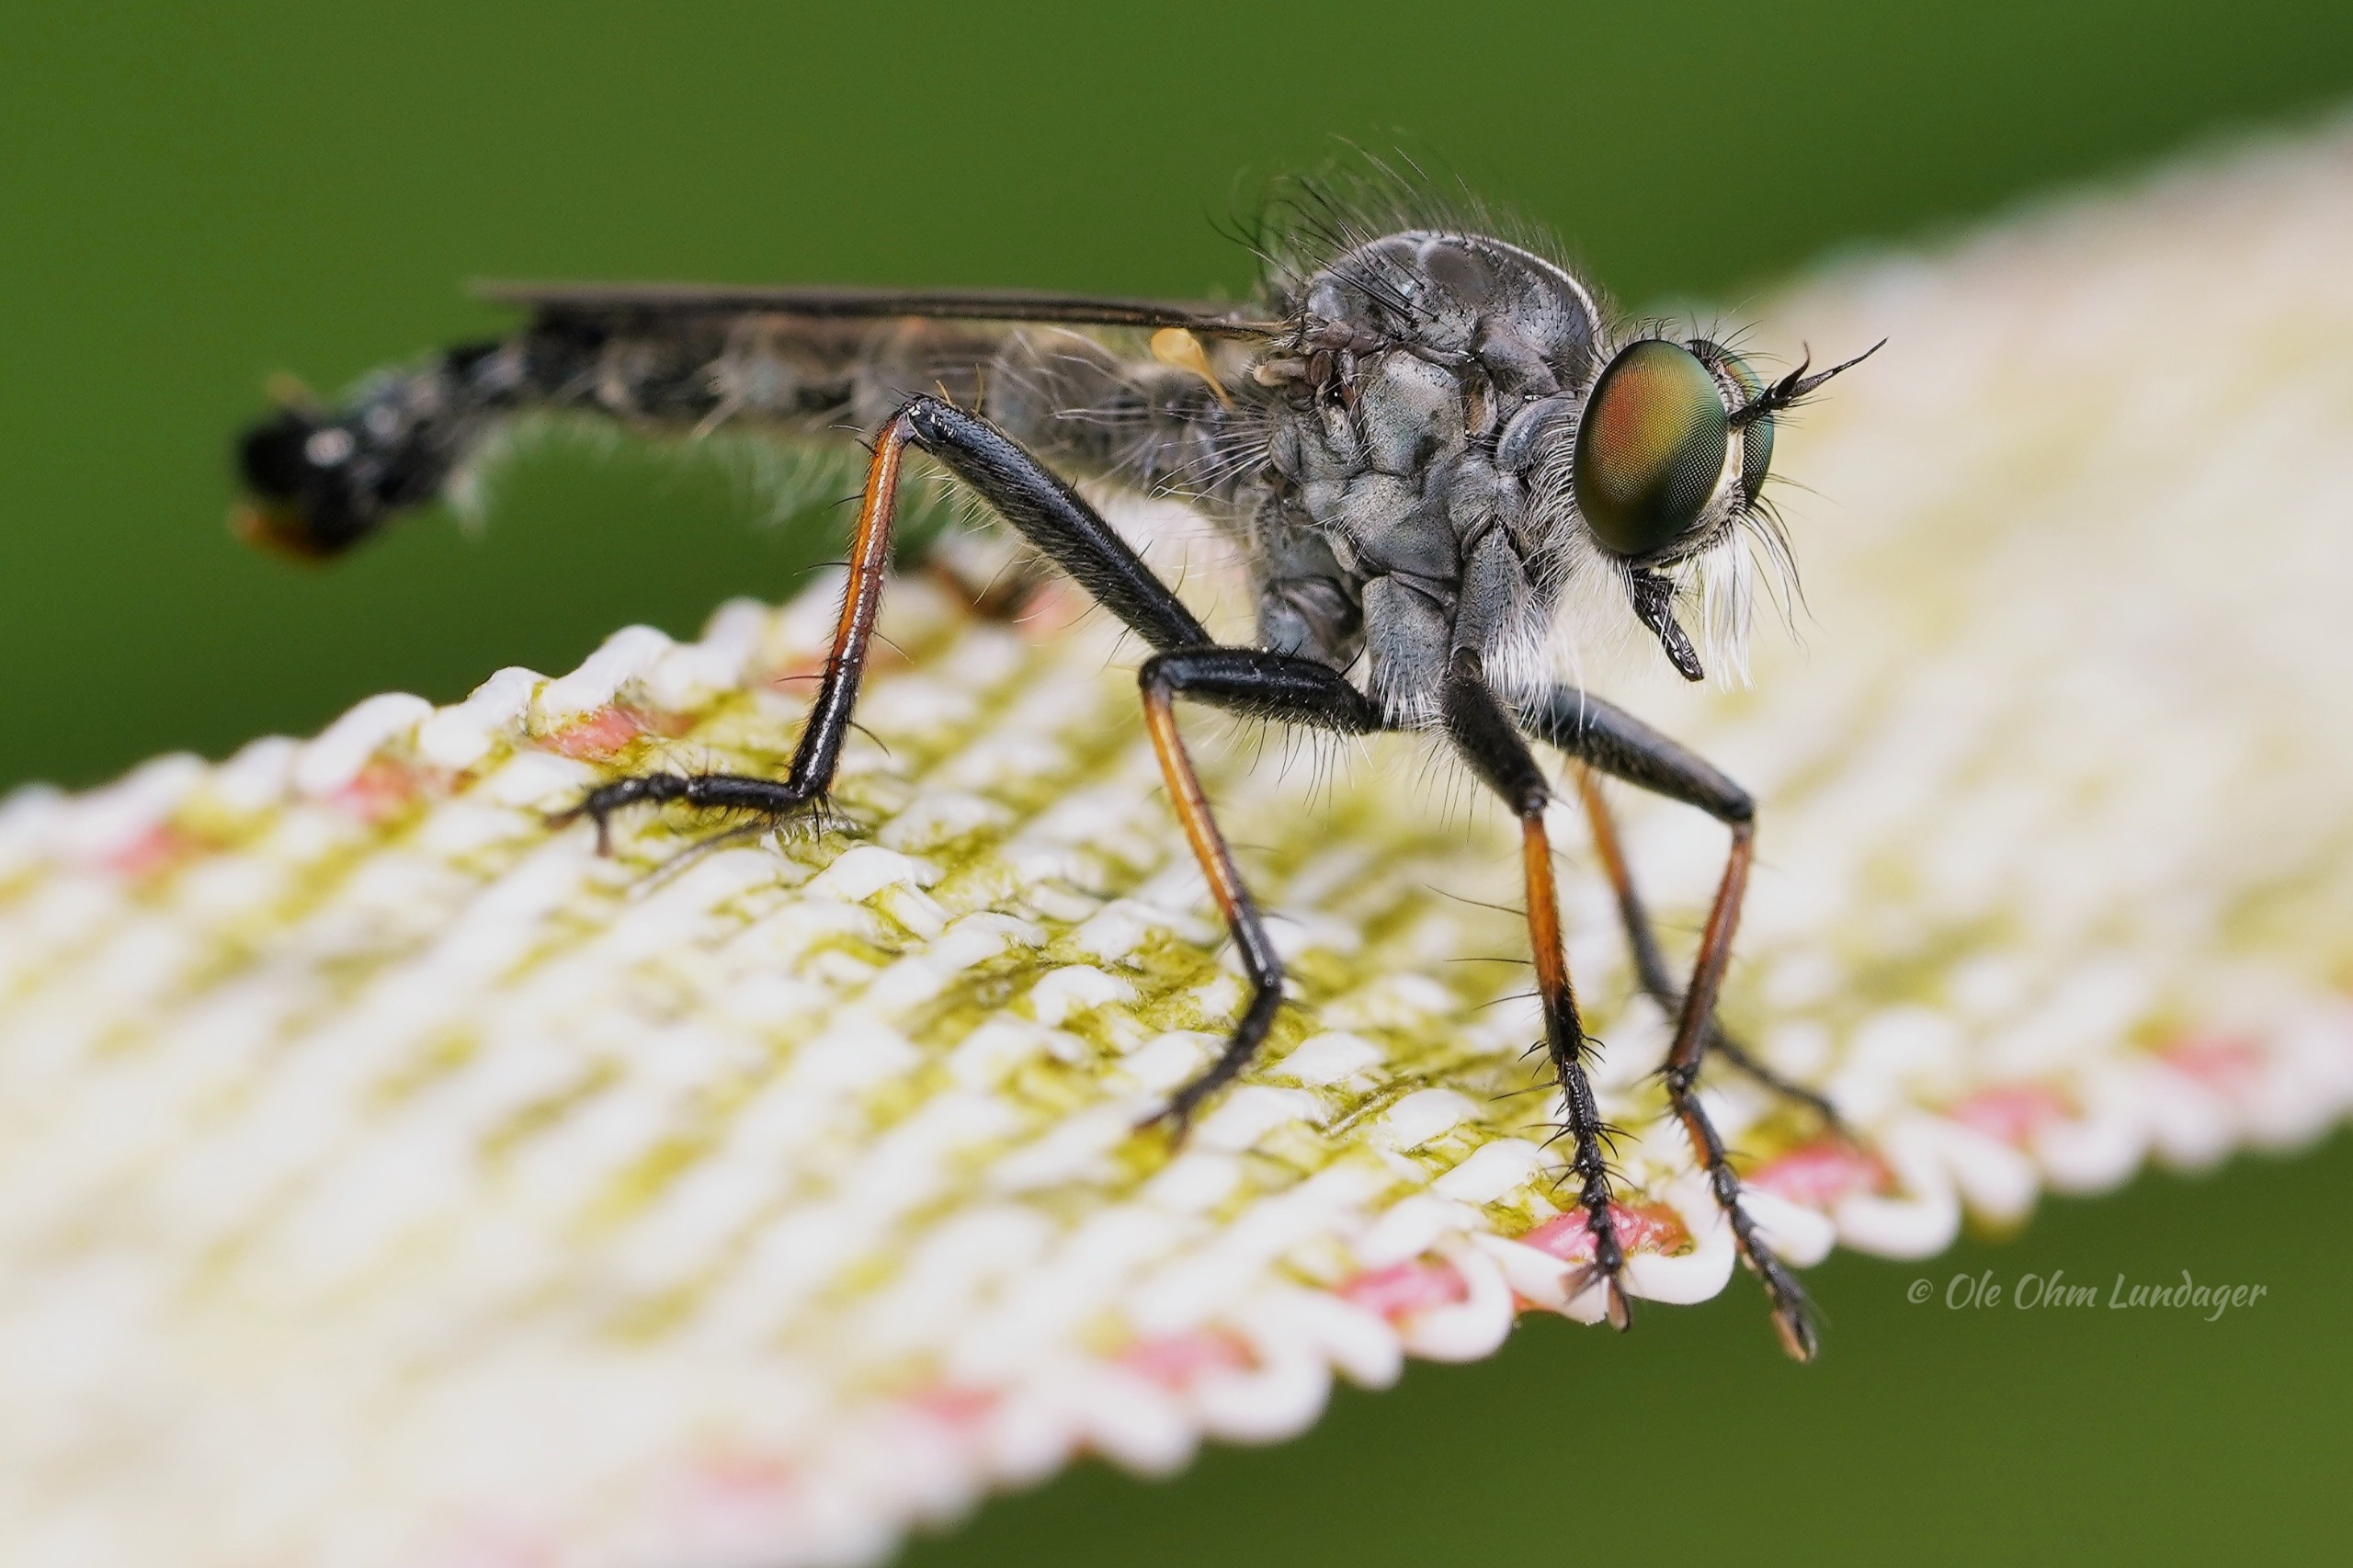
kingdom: Animalia
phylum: Arthropoda
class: Insecta
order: Diptera
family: Asilidae
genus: Neoitamus
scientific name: Neoitamus cyanurus
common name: Sortfodet skovrovflue
